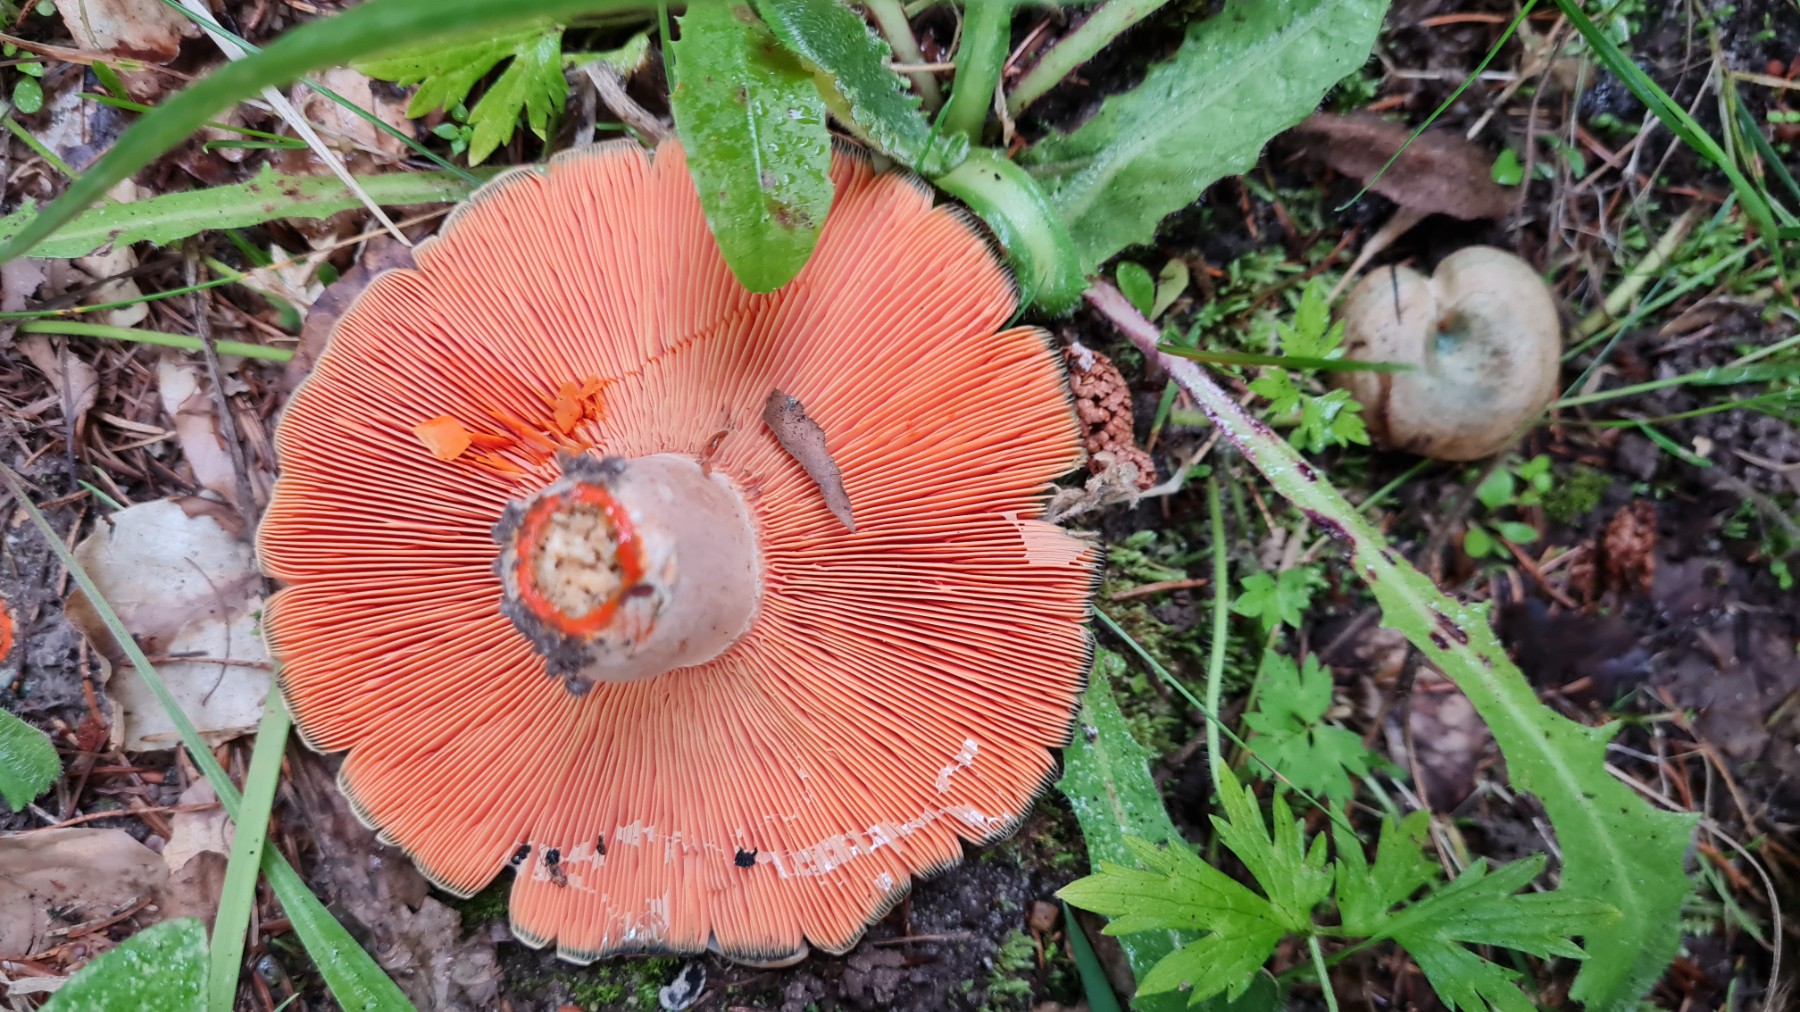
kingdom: Fungi
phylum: Basidiomycota
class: Agaricomycetes
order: Russulales
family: Russulaceae
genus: Lactarius
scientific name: Lactarius deterrimus
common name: gran-mælkehat
